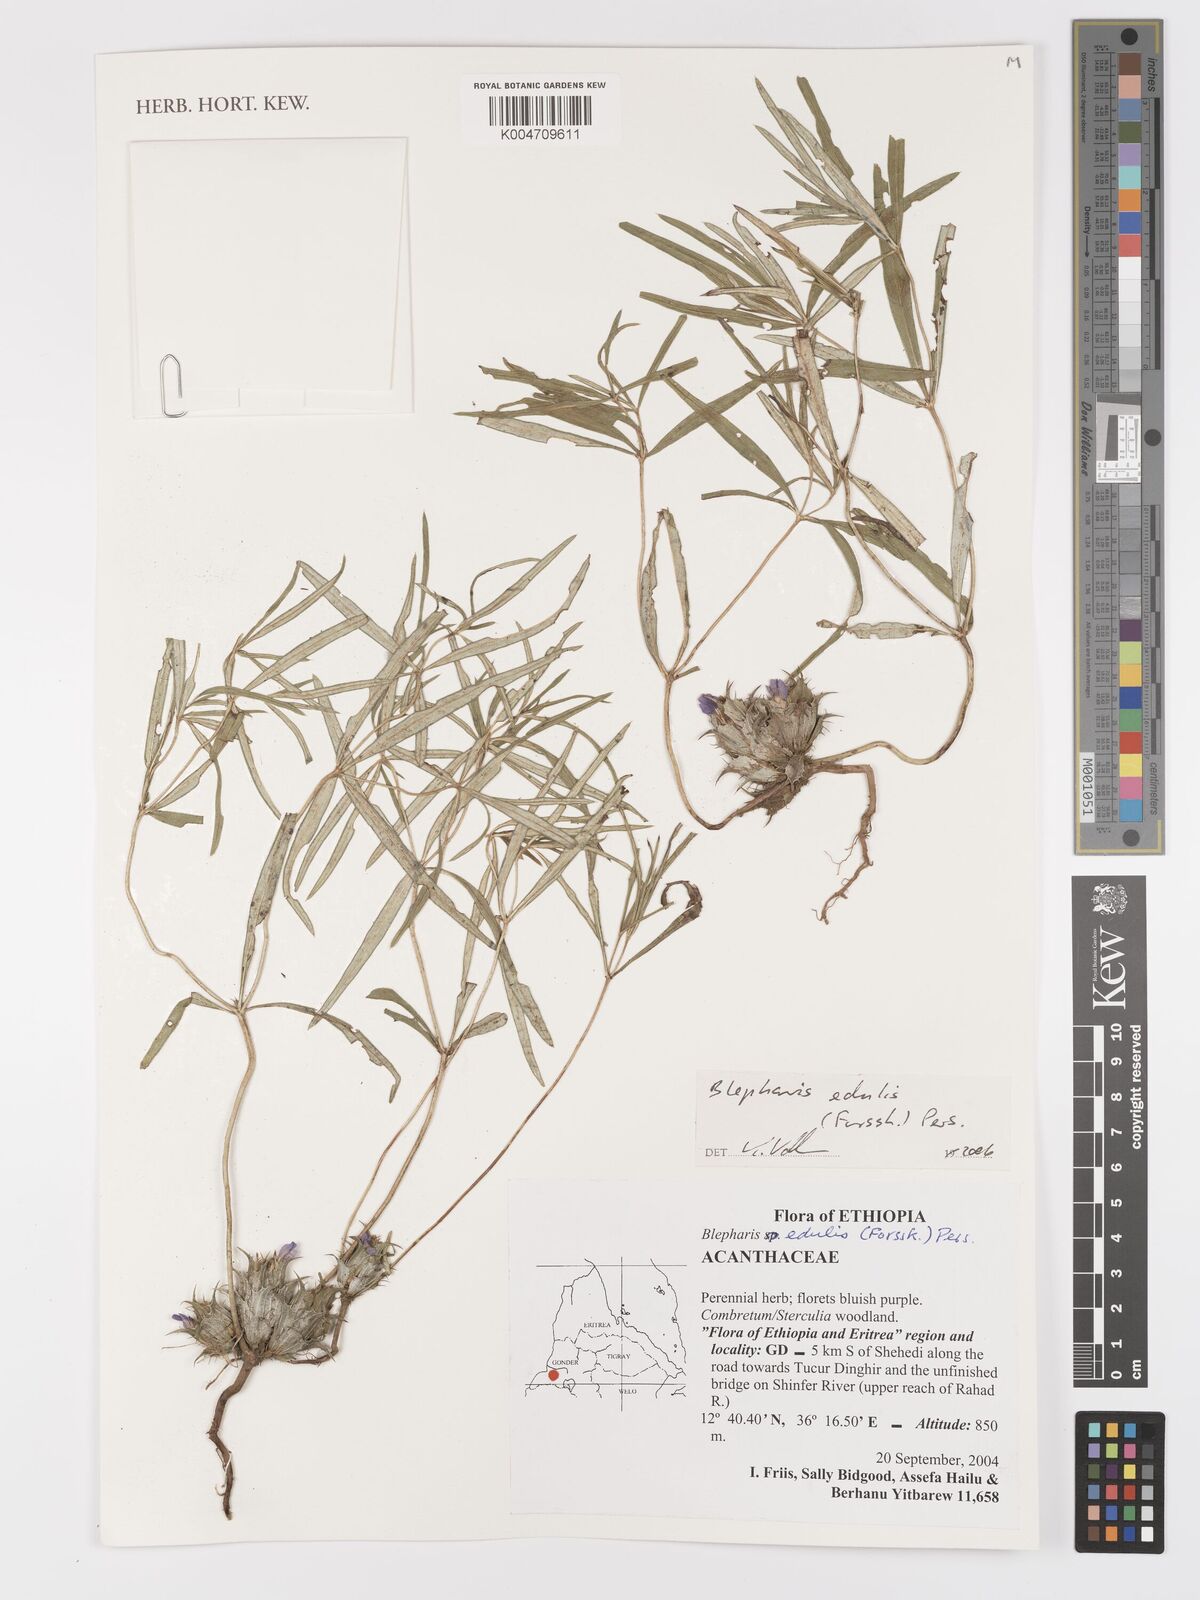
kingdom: Plantae
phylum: Tracheophyta
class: Magnoliopsida
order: Lamiales
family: Acanthaceae
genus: Blepharis
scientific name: Blepharis edulis
